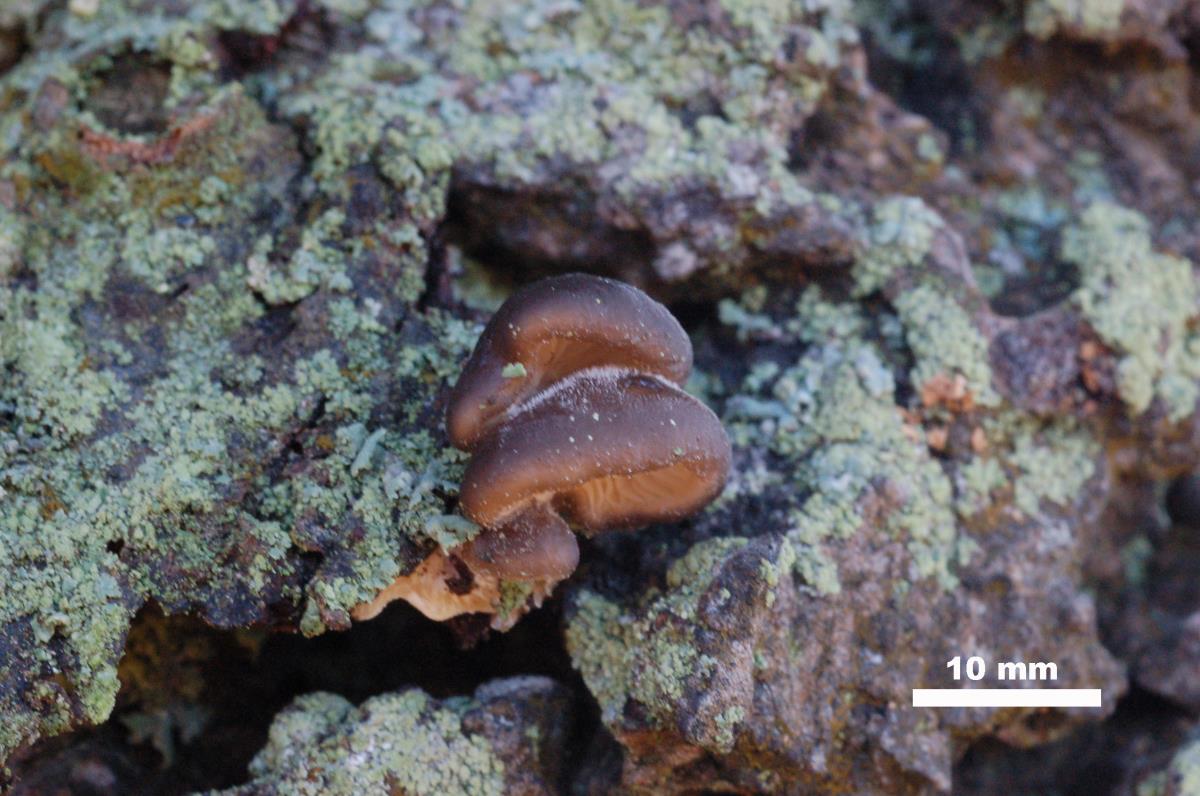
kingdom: Fungi
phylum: Basidiomycota
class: Agaricomycetes
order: Agaricales
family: Pleurotaceae
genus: Hohenbuehelia
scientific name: Hohenbuehelia brunnea
